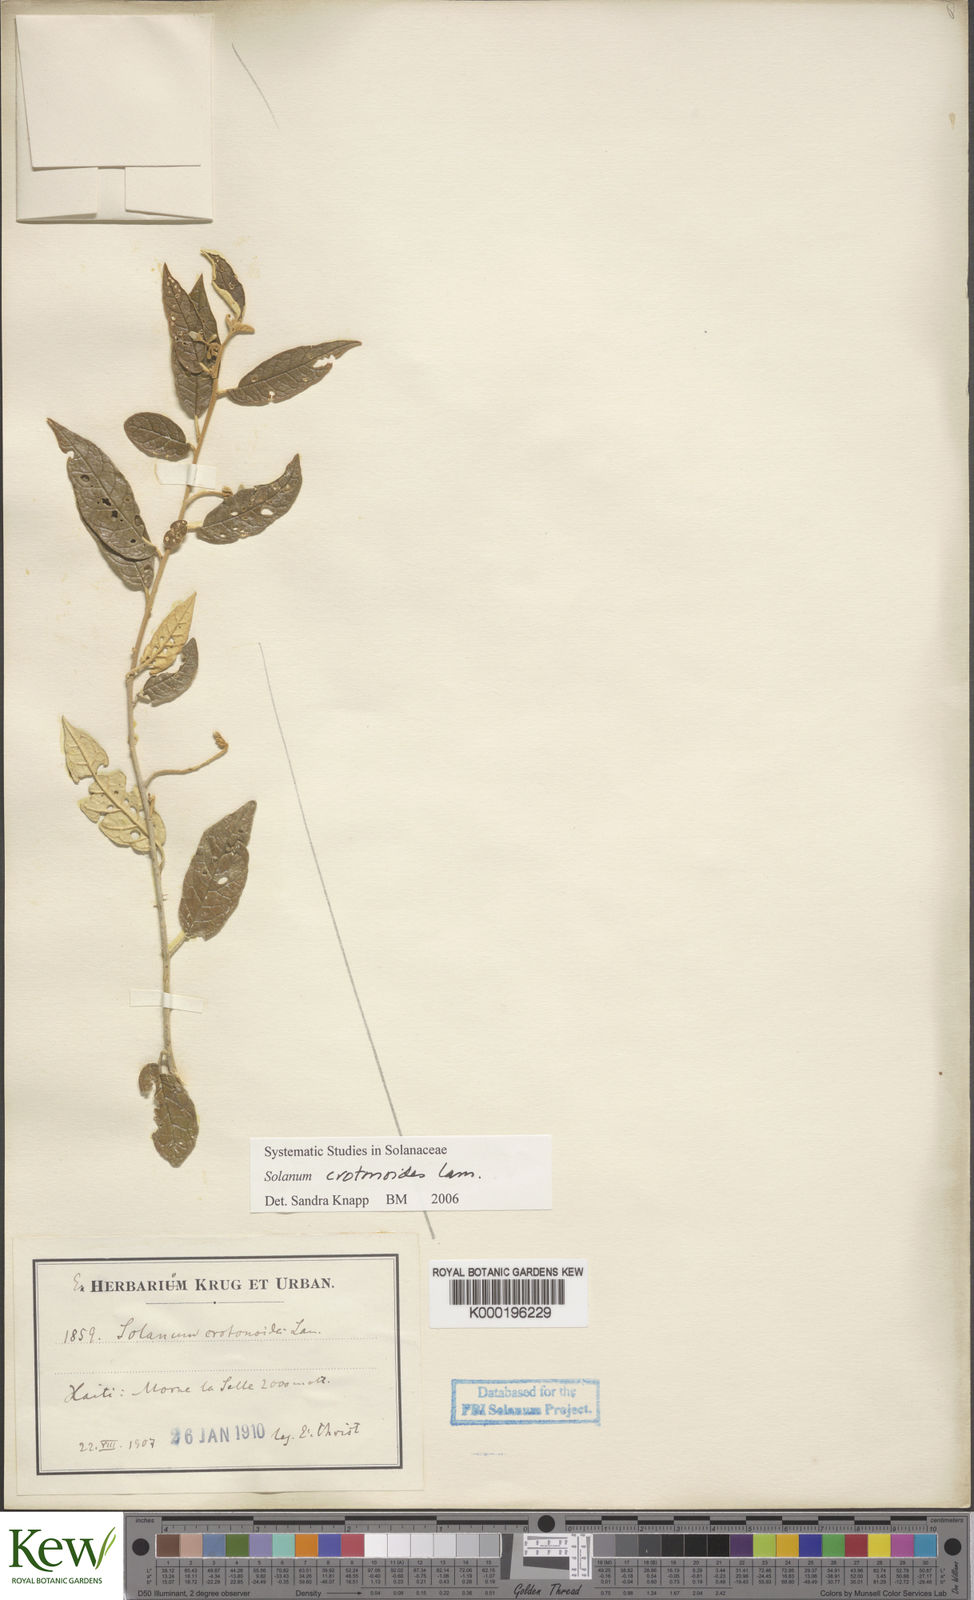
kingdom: Plantae
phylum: Tracheophyta
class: Magnoliopsida
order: Solanales
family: Solanaceae
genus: Solanum
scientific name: Solanum crotonoides
